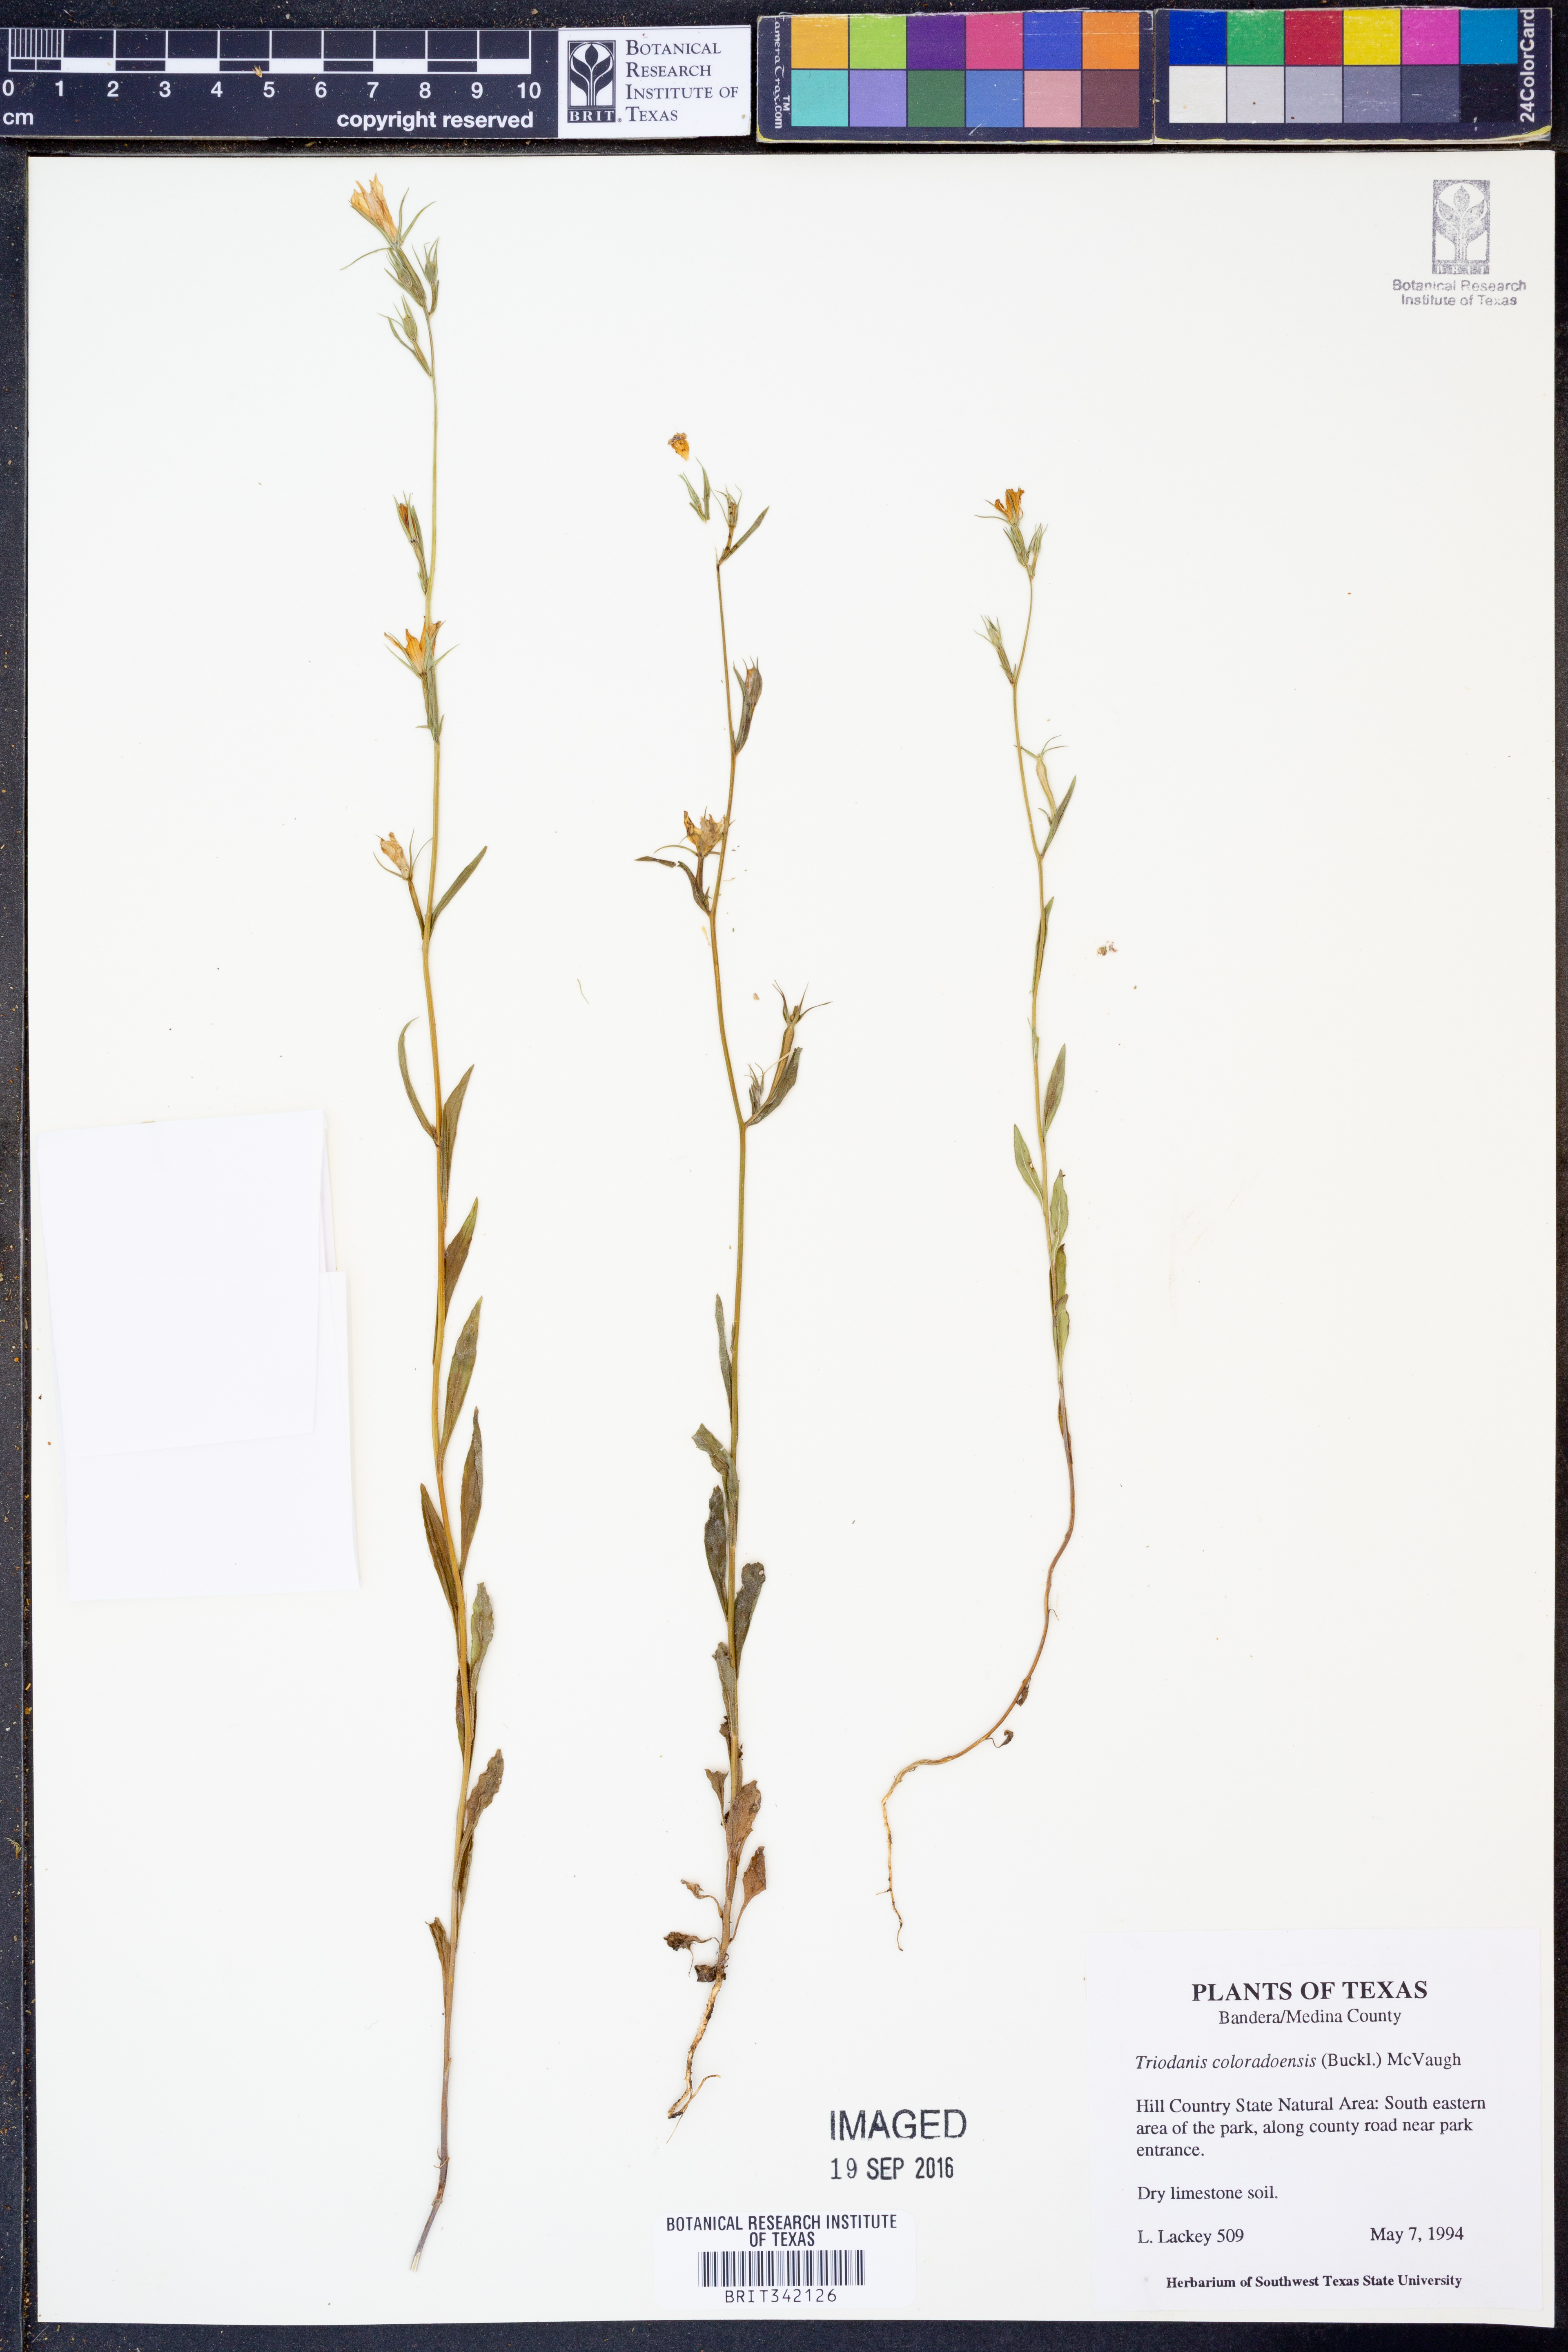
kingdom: Plantae
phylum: Tracheophyta
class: Magnoliopsida
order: Asterales
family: Campanulaceae
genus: Triodanis
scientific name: Triodanis coloradoensis
